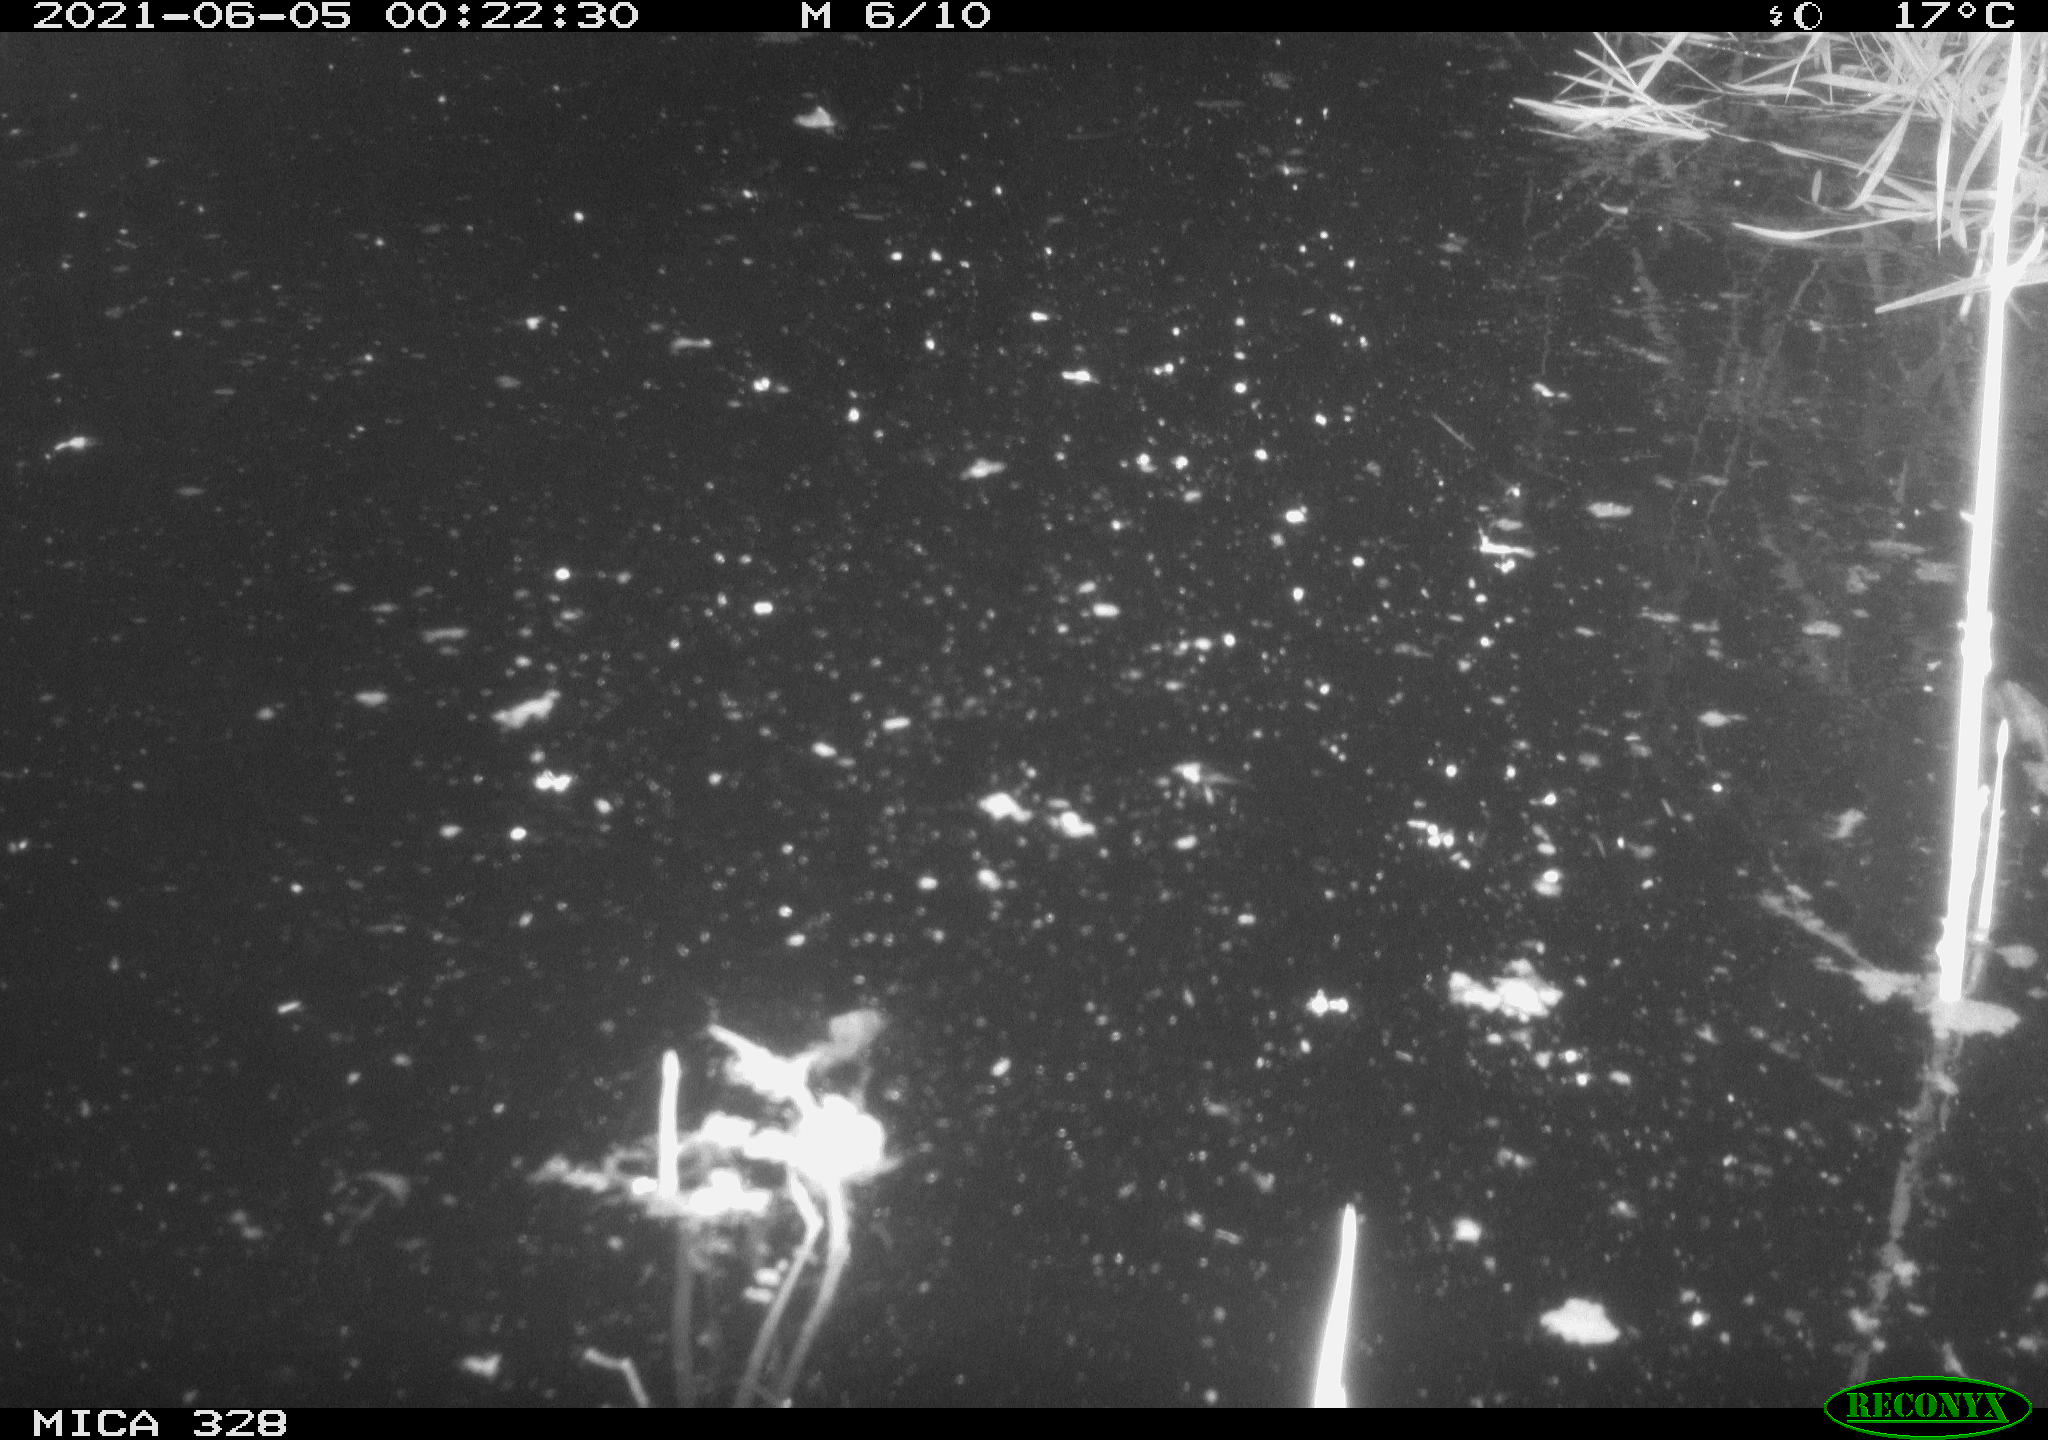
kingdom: Animalia
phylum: Chordata
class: Mammalia
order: Rodentia
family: Cricetidae
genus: Ondatra
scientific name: Ondatra zibethicus
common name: Muskrat
